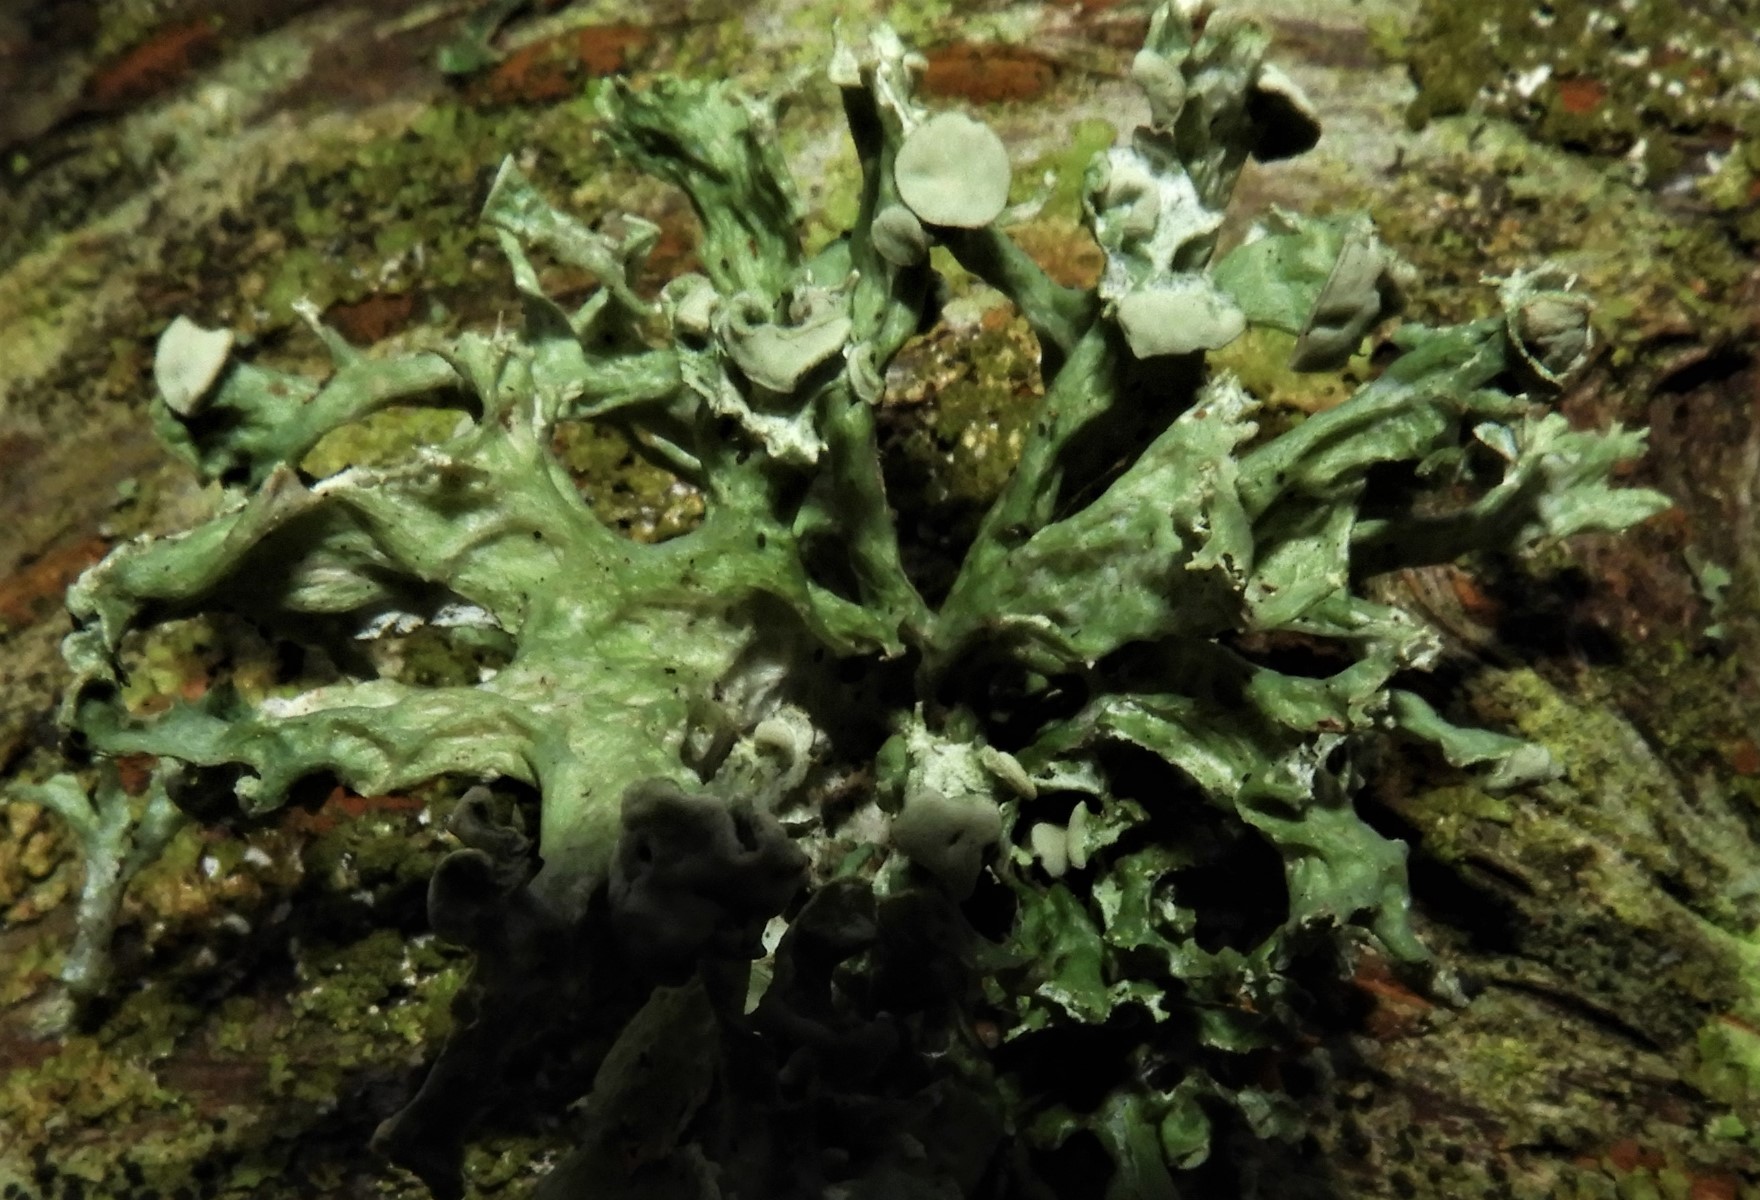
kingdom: Fungi
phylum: Ascomycota
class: Lecanoromycetes
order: Lecanorales
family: Ramalinaceae
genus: Ramalina
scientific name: Ramalina fastigiata
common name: tue-grenlav
